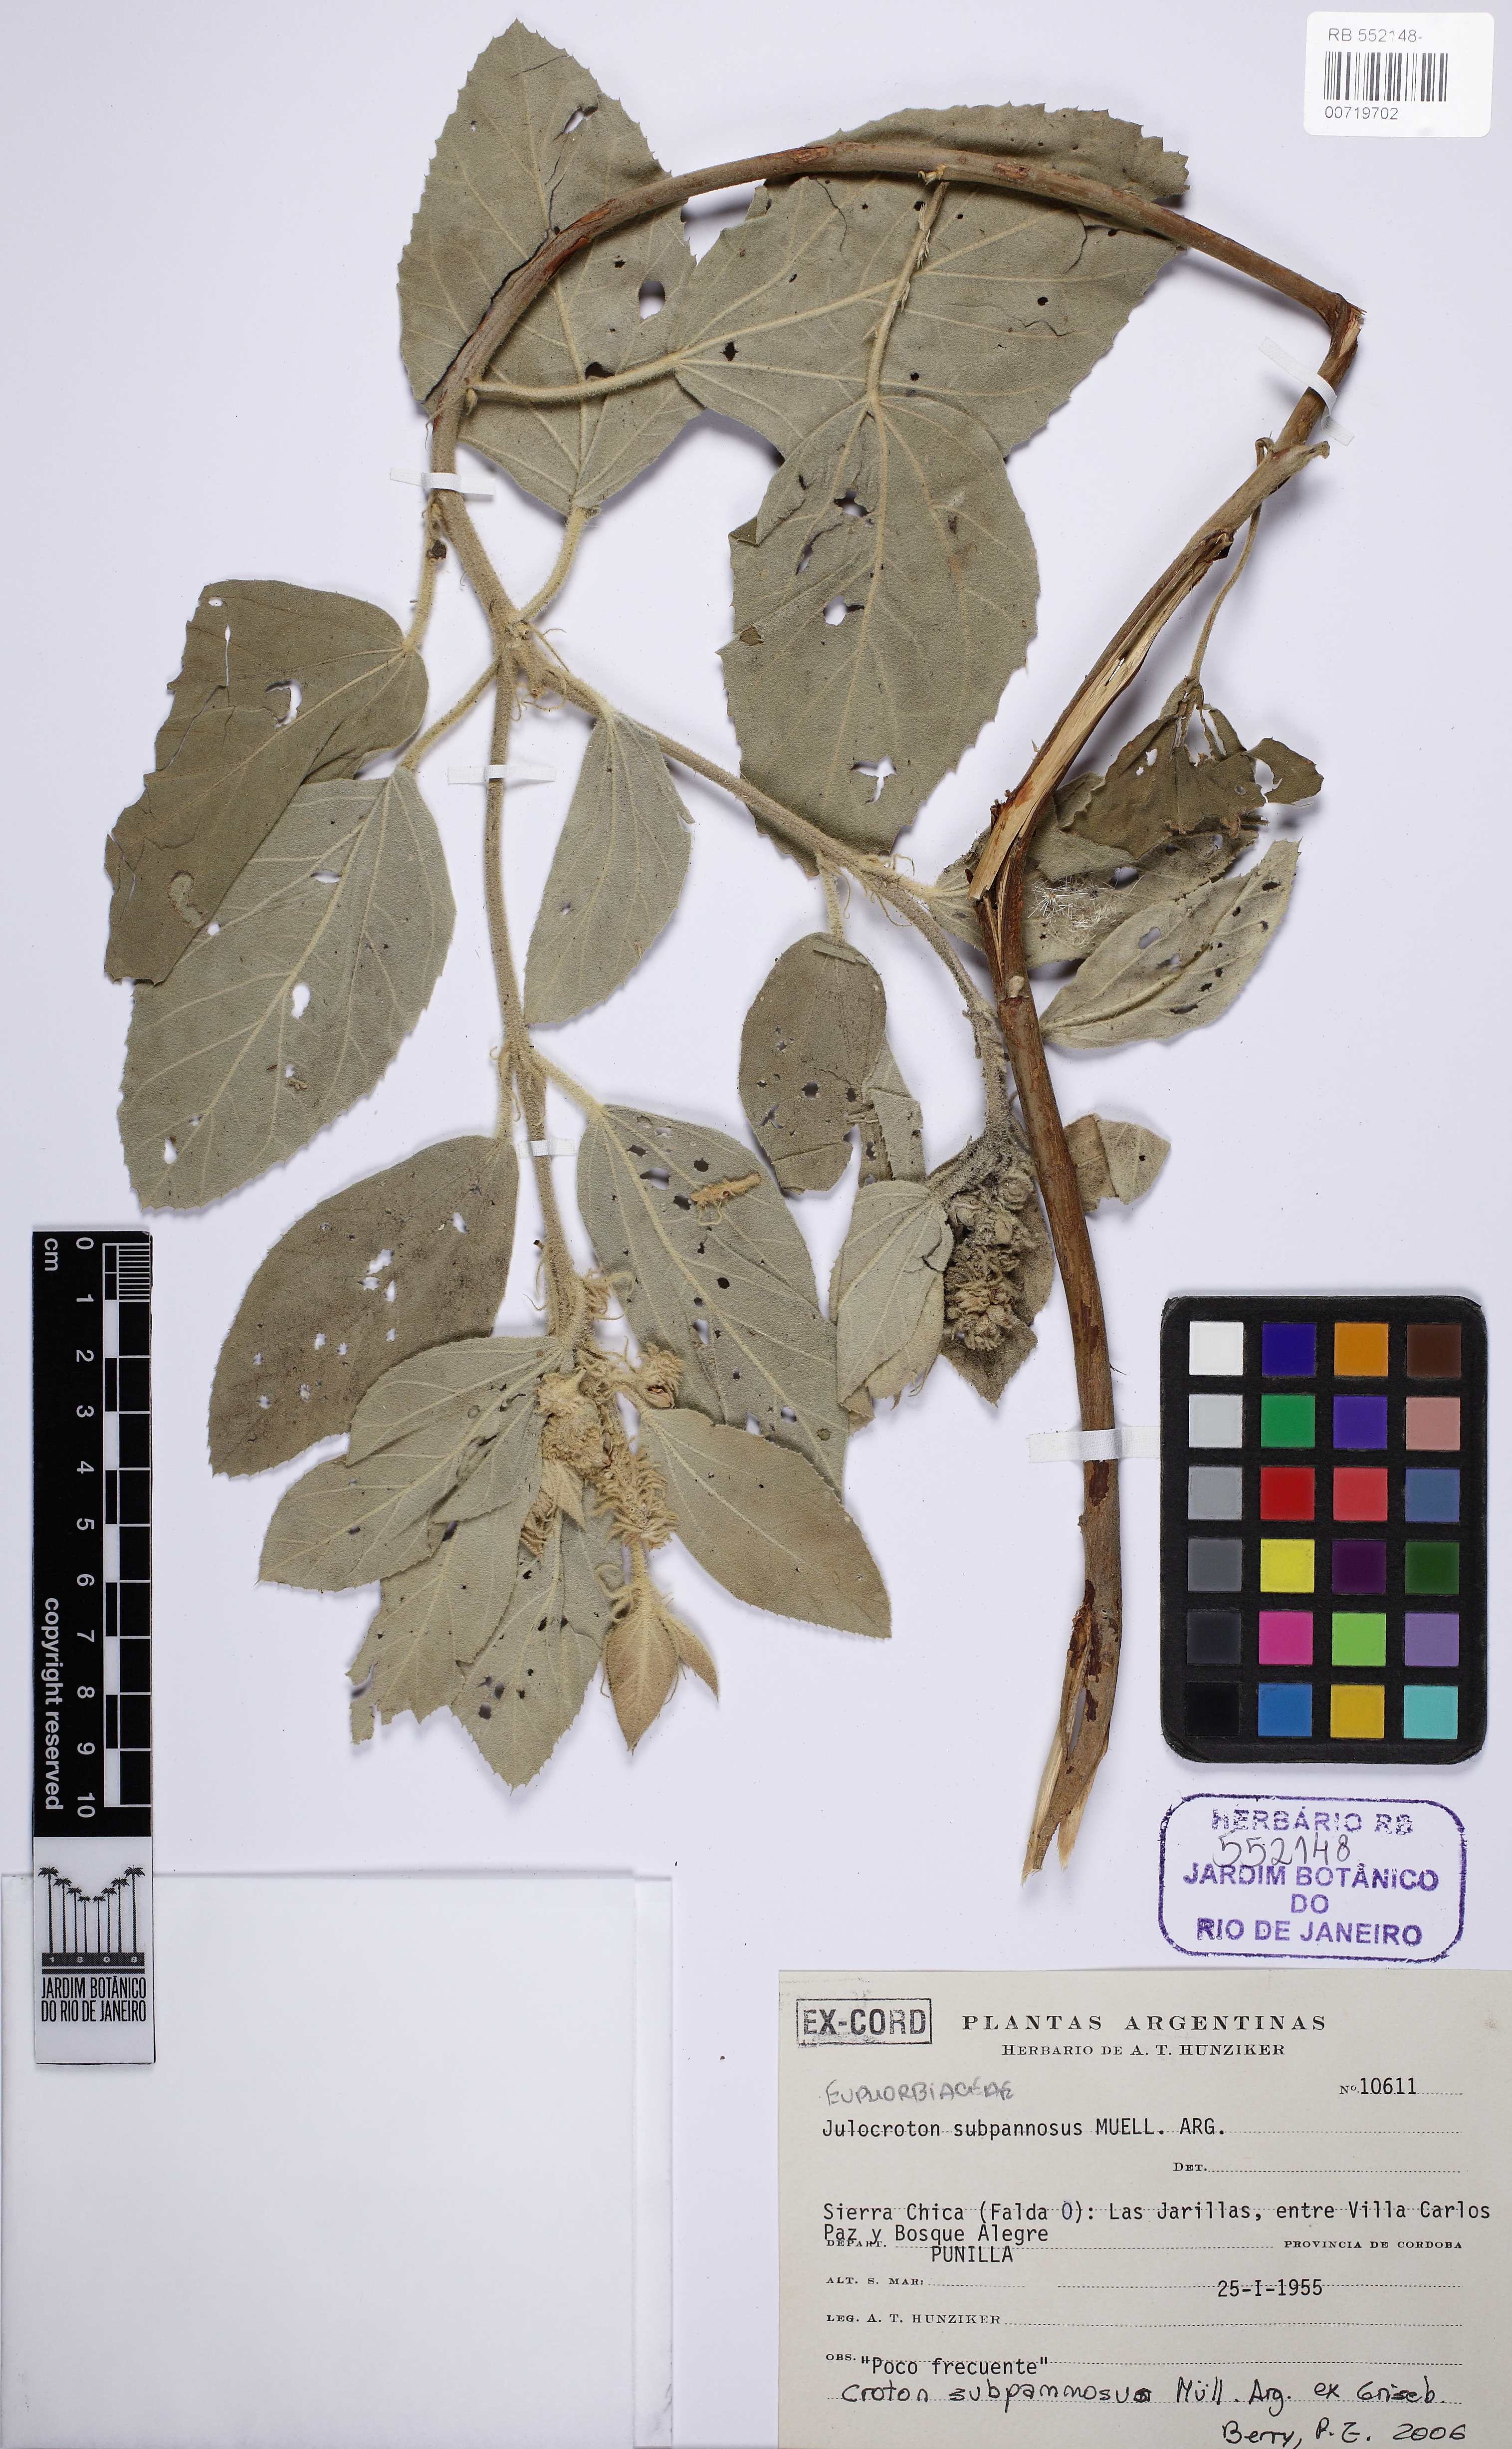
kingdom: Plantae
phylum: Tracheophyta
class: Magnoliopsida
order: Malpighiales
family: Euphorbiaceae
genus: Croton
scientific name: Croton subpannosus
